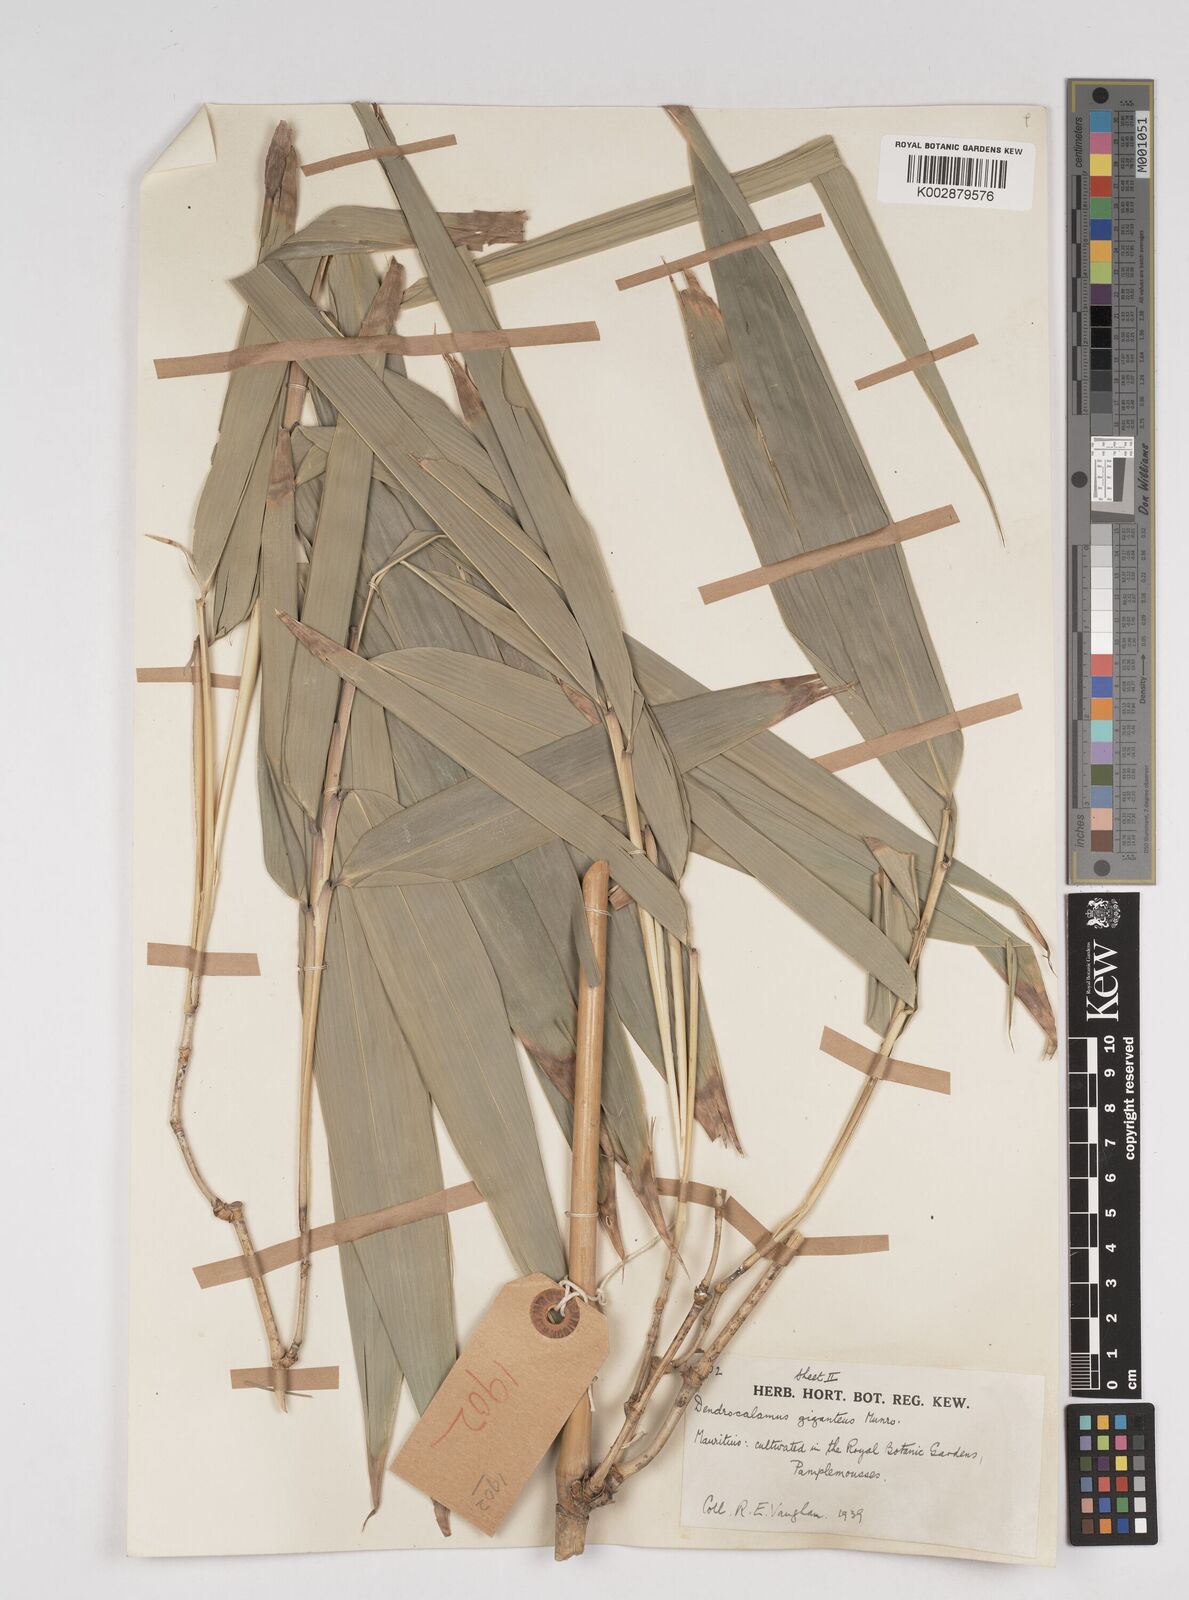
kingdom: Plantae
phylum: Tracheophyta
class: Liliopsida
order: Poales
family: Poaceae
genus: Dendrocalamus
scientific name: Dendrocalamus giganteus
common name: Giant bamboo
